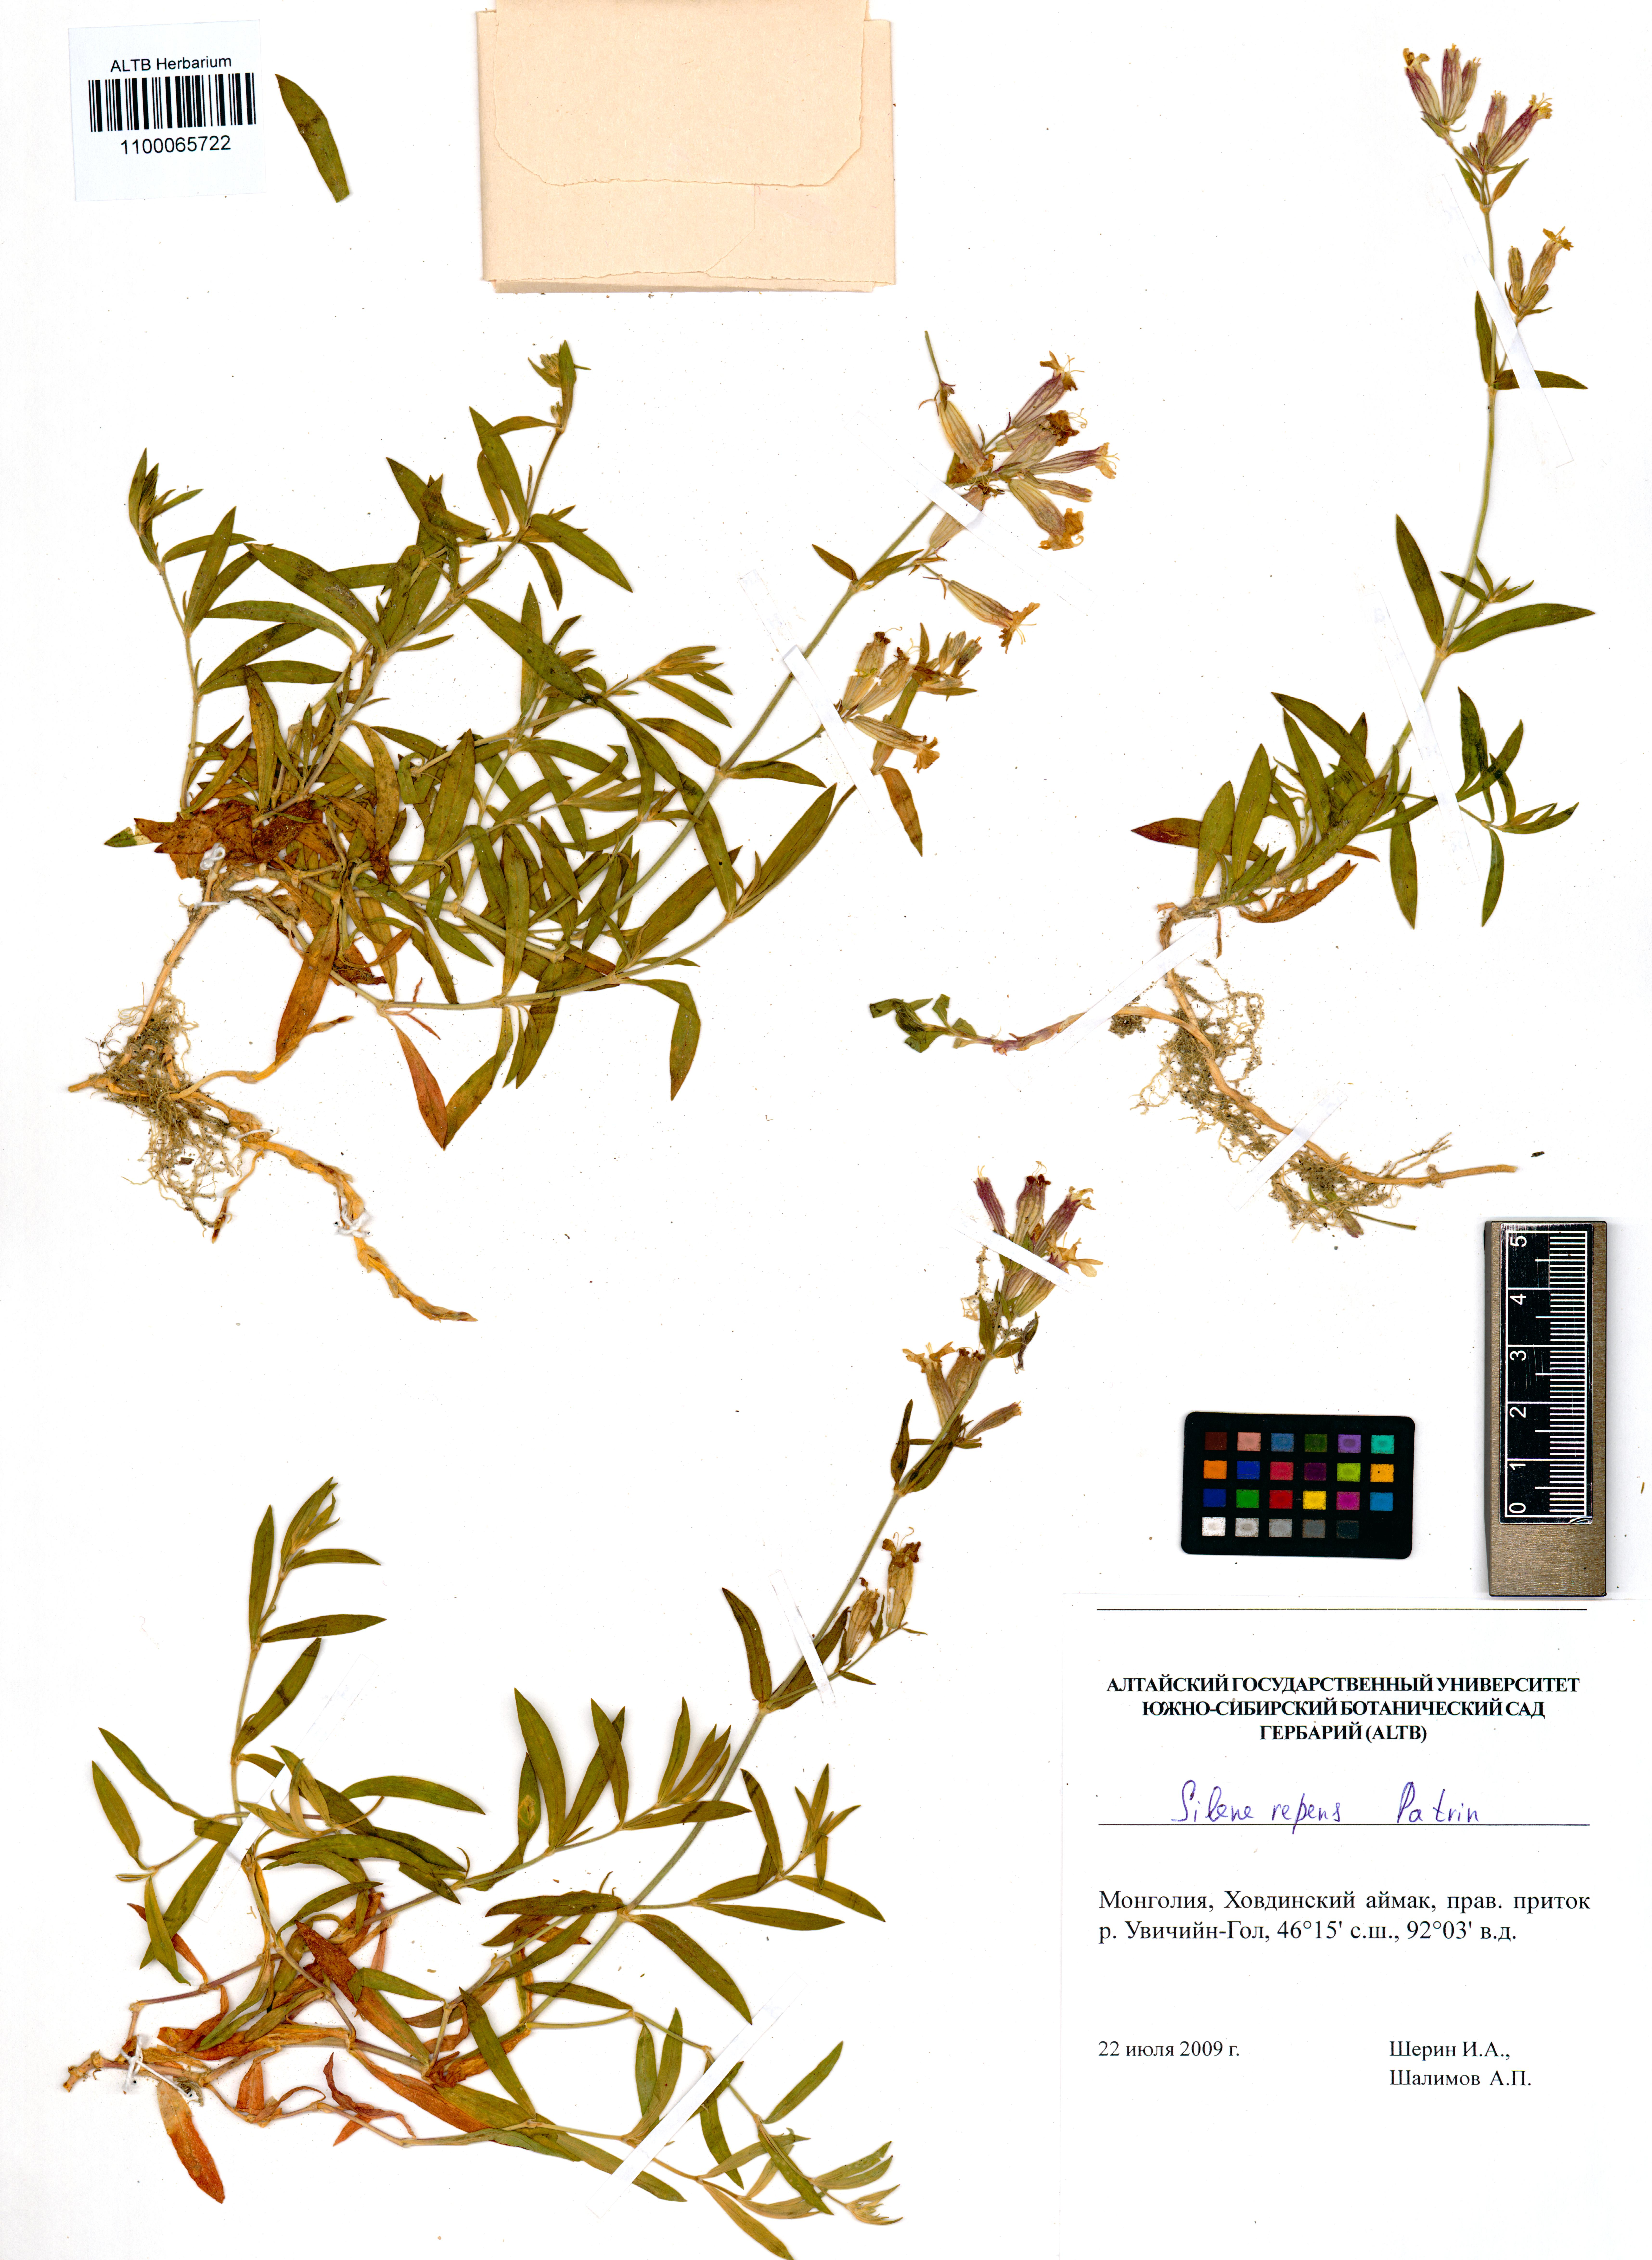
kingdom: Plantae
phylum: Tracheophyta
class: Magnoliopsida
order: Caryophyllales
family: Caryophyllaceae
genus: Silene
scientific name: Silene repens
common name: Pink campion
